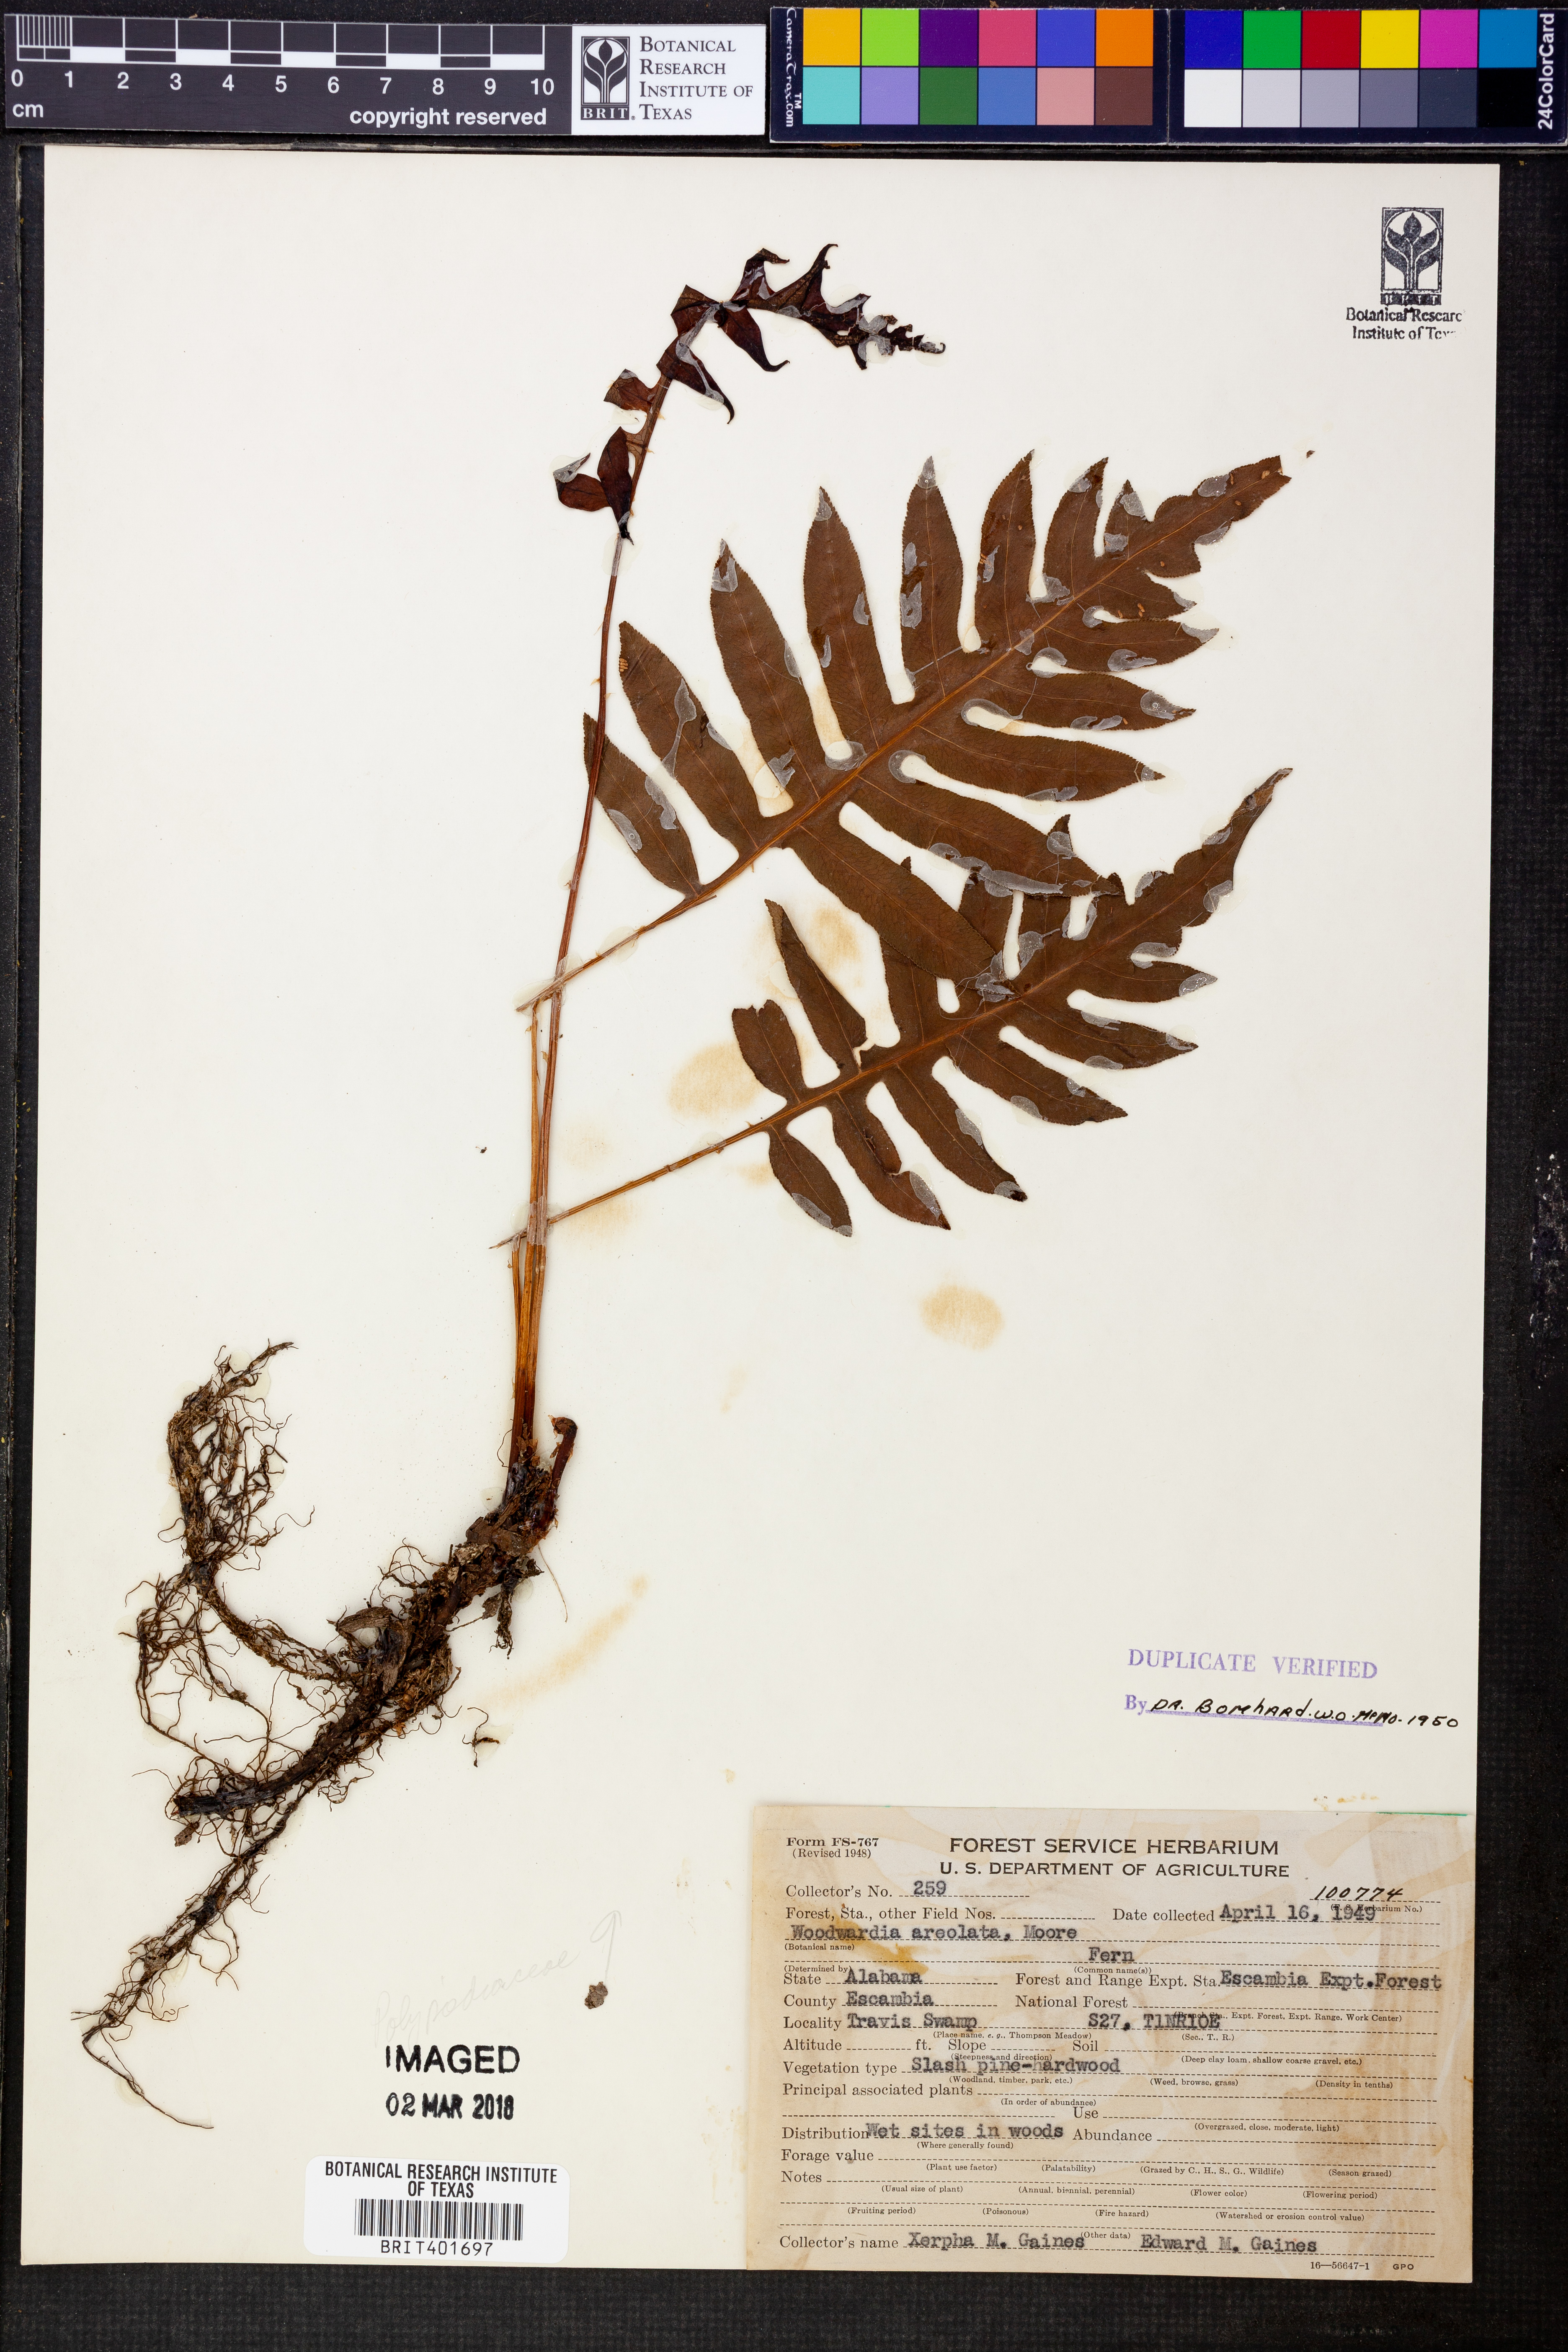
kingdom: Plantae
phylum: Tracheophyta
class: Polypodiopsida
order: Polypodiales
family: Blechnaceae
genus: Lorinseria
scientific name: Lorinseria areolata
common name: Dwarf chain fern
